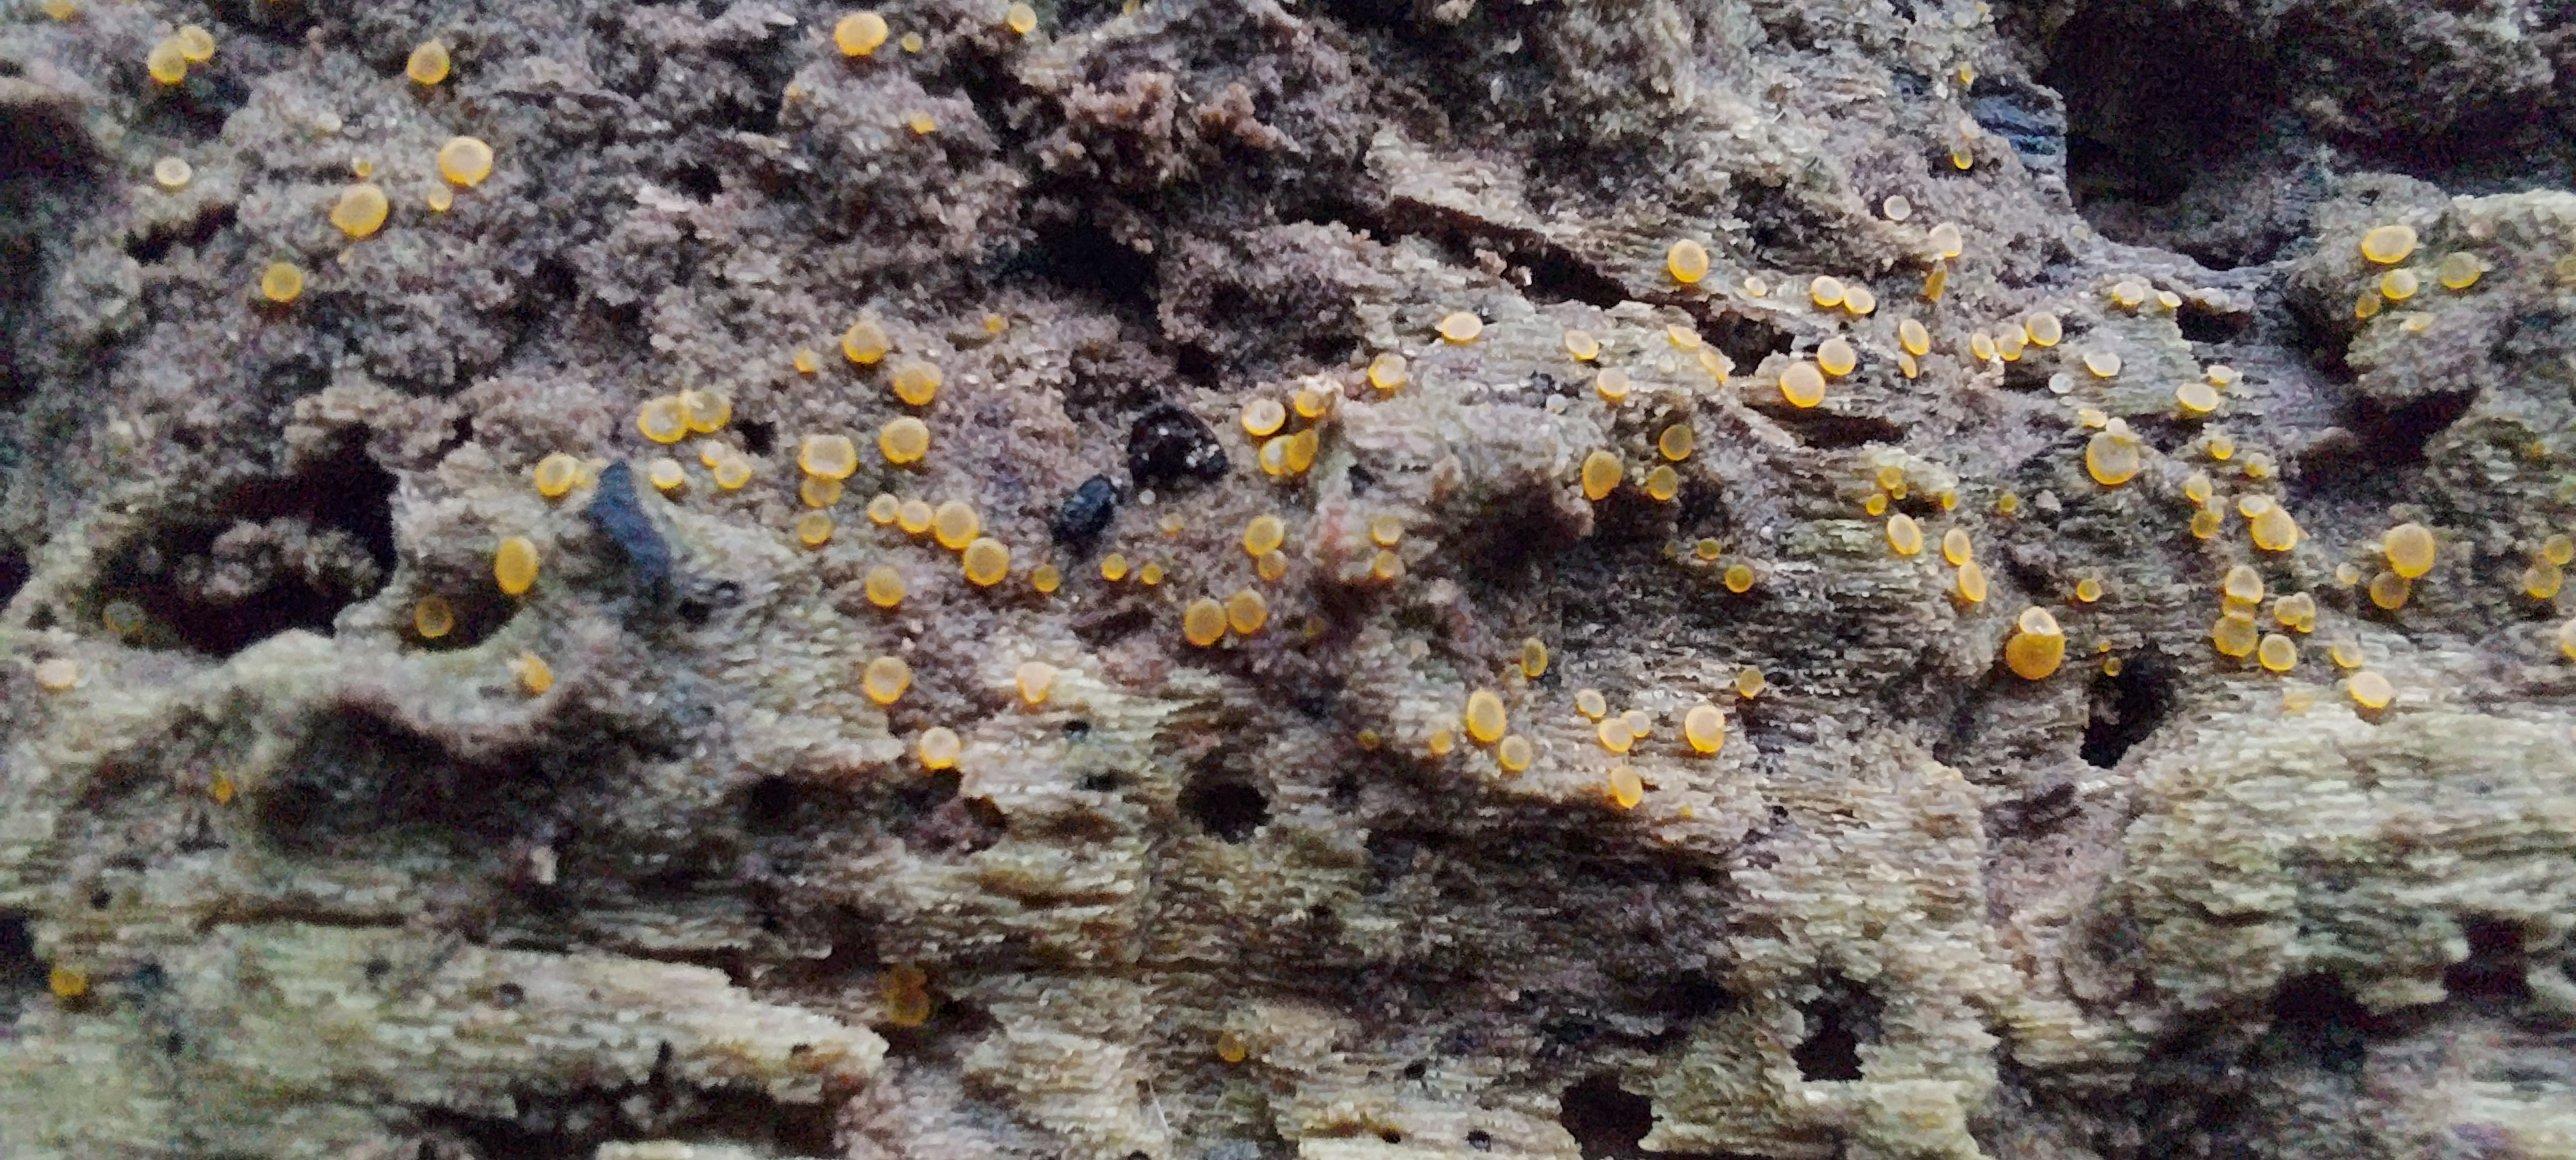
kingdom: Fungi
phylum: Ascomycota
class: Orbiliomycetes
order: Orbiliales
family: Orbiliaceae
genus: Orbilia
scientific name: Orbilia
